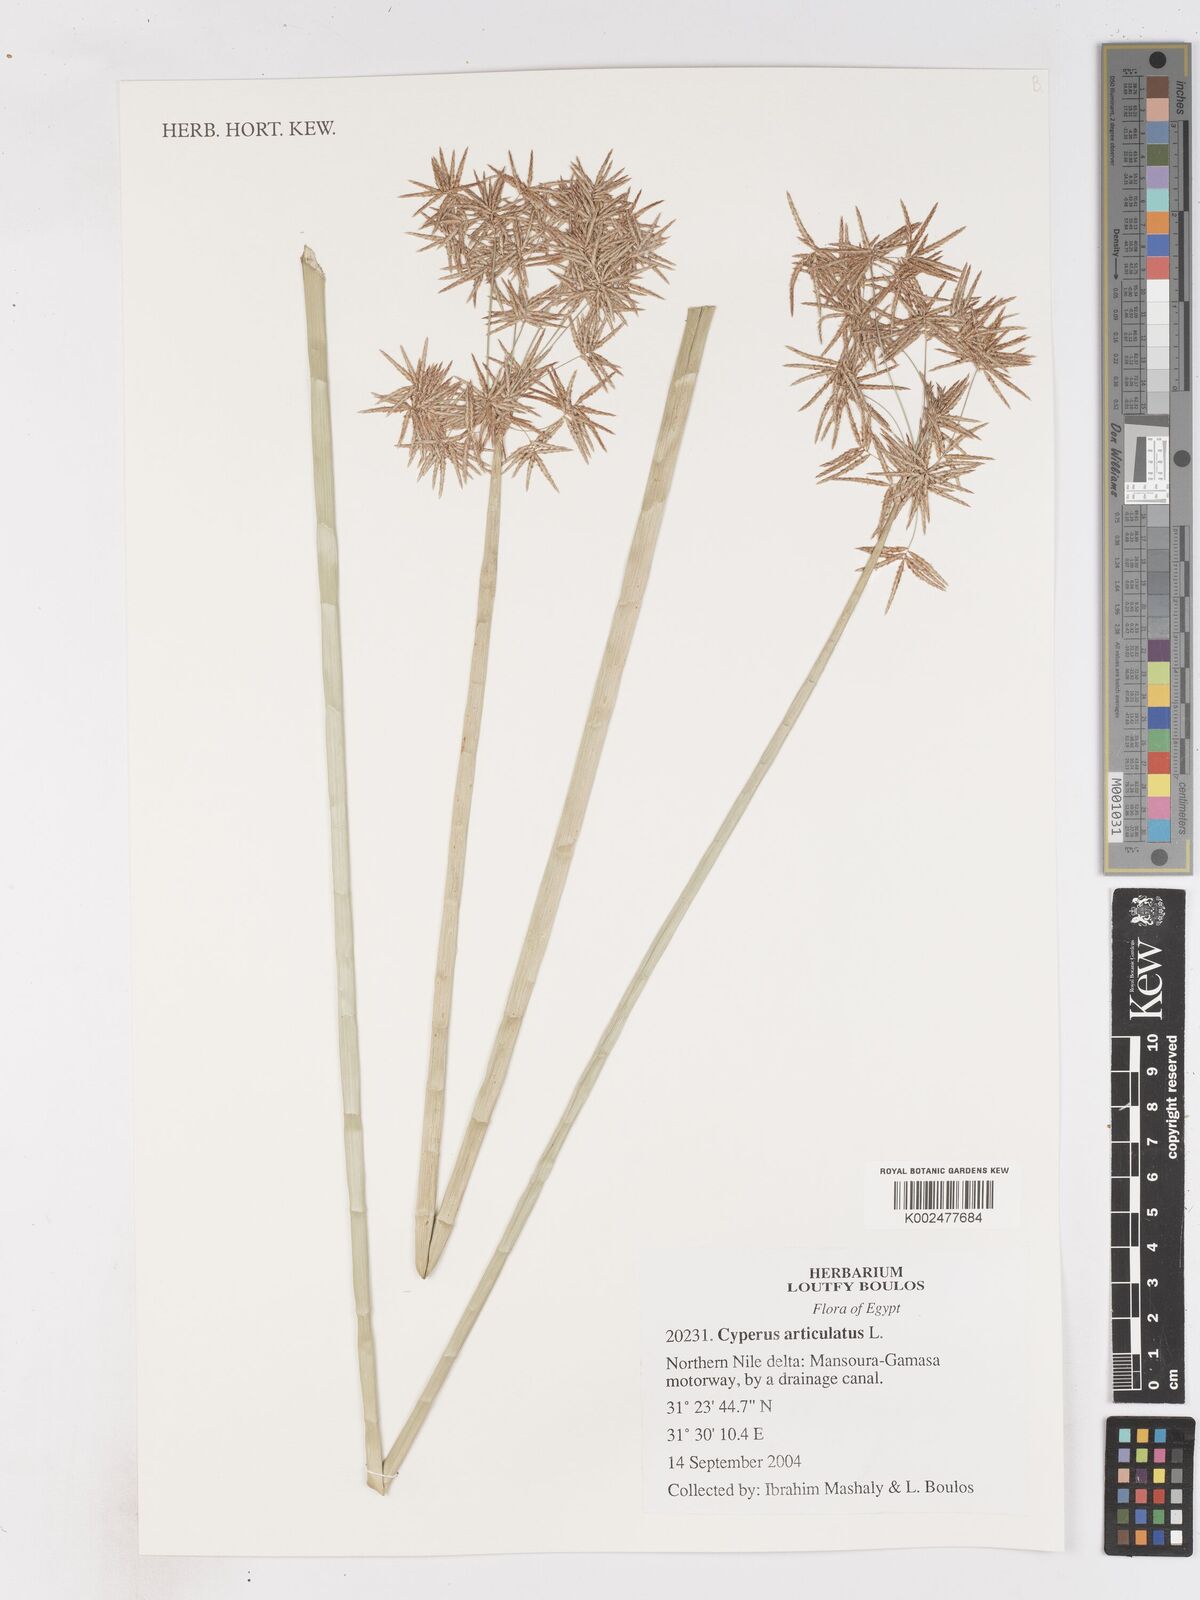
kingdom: Plantae
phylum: Tracheophyta
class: Liliopsida
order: Poales
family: Cyperaceae
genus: Cyperus
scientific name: Cyperus articulatus
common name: Jointed flatsedge
